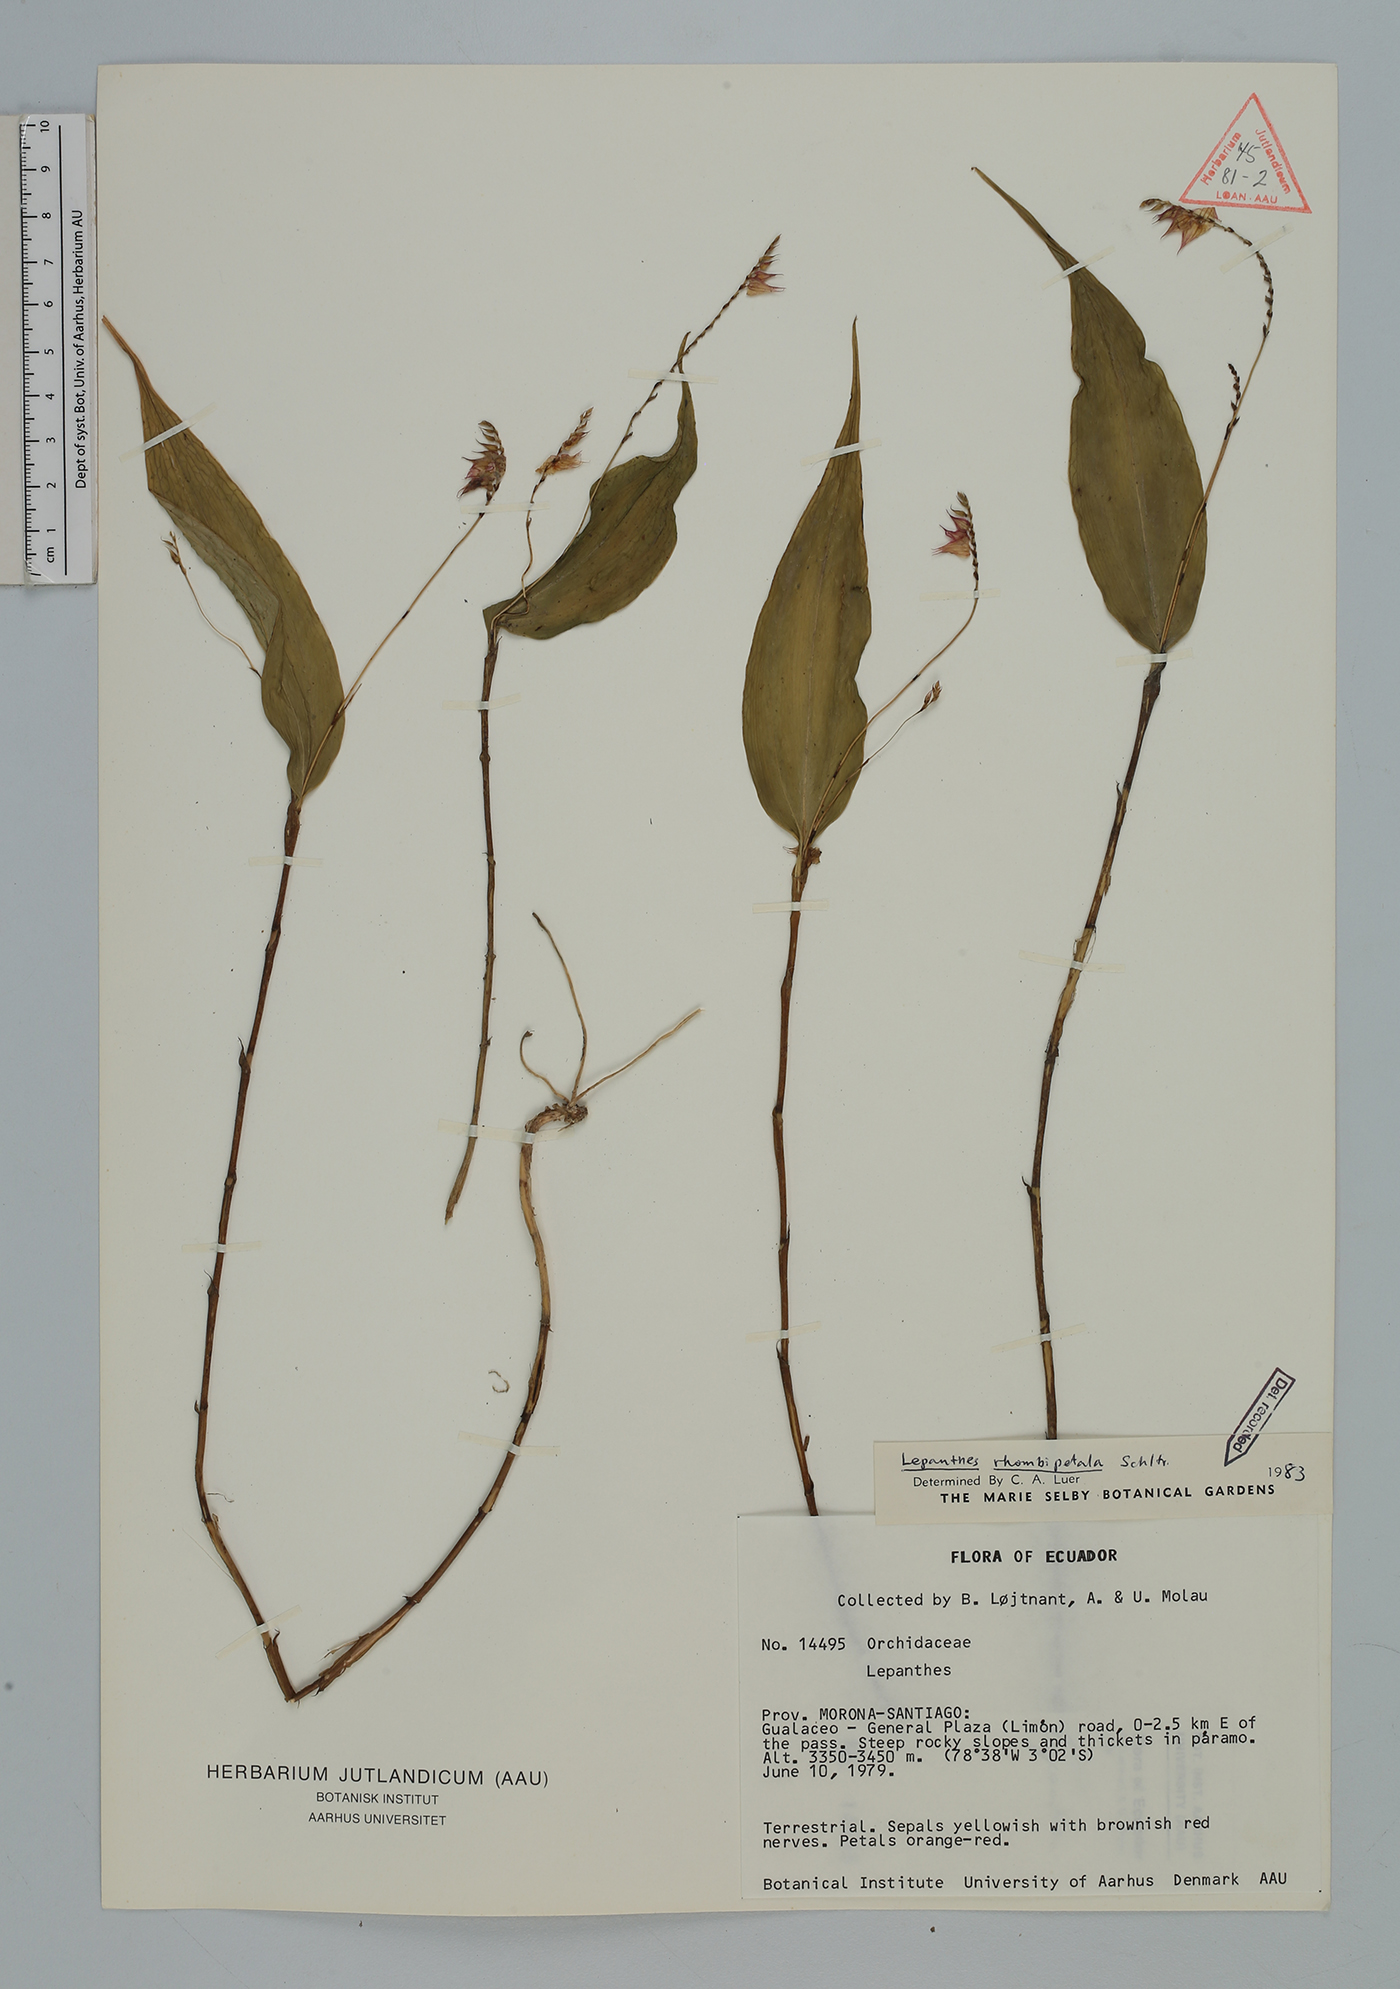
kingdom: Plantae
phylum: Tracheophyta
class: Liliopsida
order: Asparagales
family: Orchidaceae
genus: Lepanthes
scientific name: Lepanthes rhombipetala
